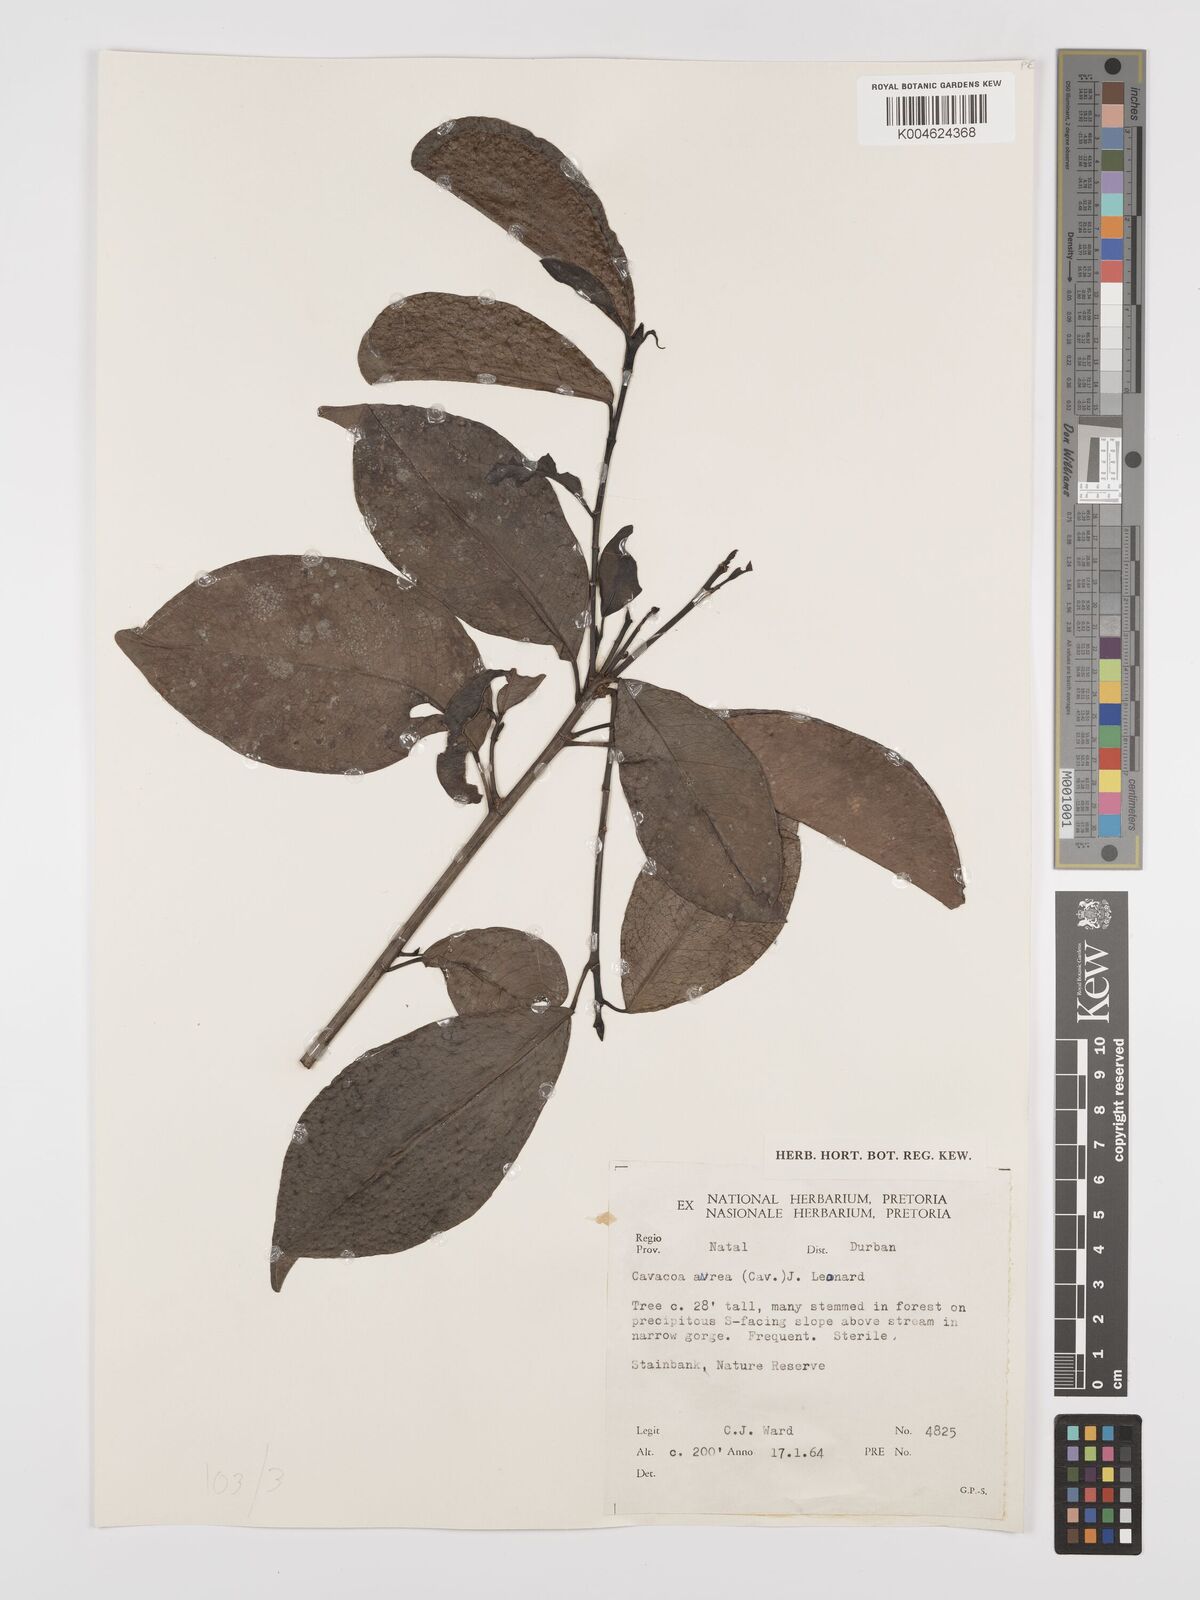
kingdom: Plantae
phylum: Tracheophyta
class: Magnoliopsida
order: Malpighiales
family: Euphorbiaceae
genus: Cavacoa
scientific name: Cavacoa aurea
